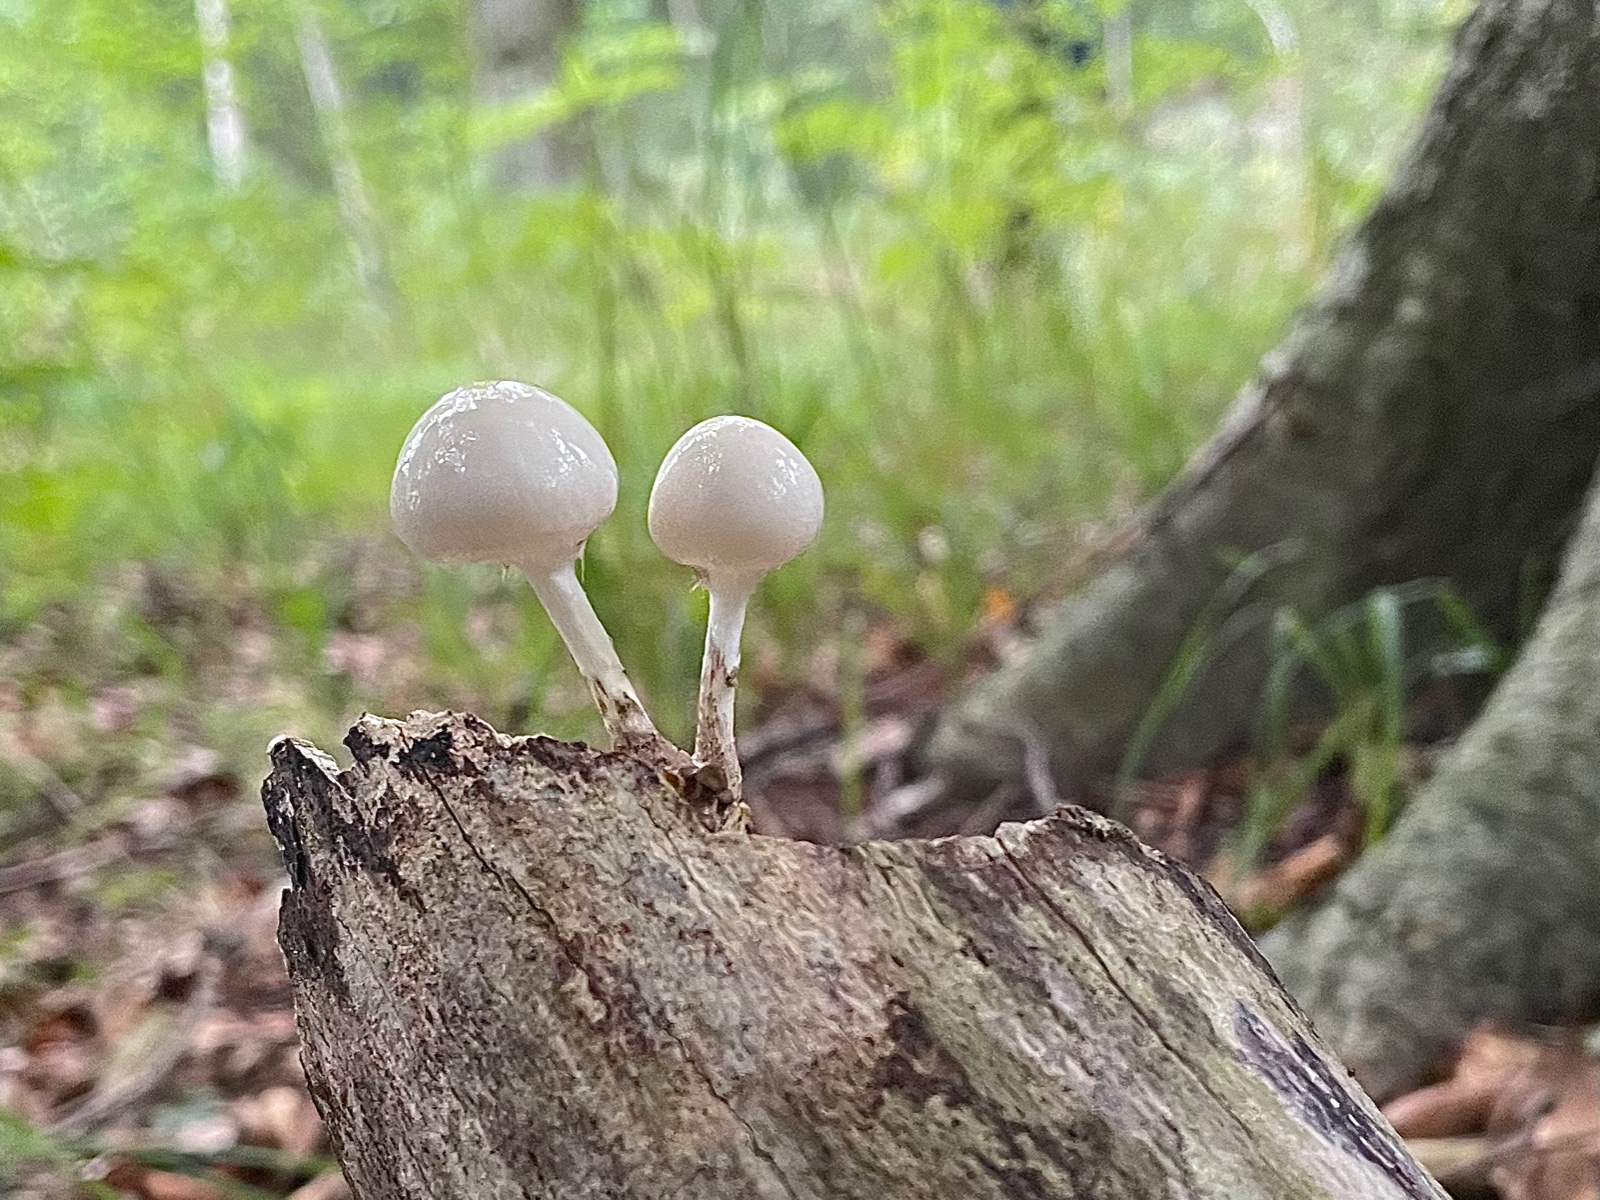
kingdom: Fungi
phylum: Basidiomycota
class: Agaricomycetes
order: Agaricales
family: Physalacriaceae
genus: Mucidula
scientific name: Mucidula mucida
